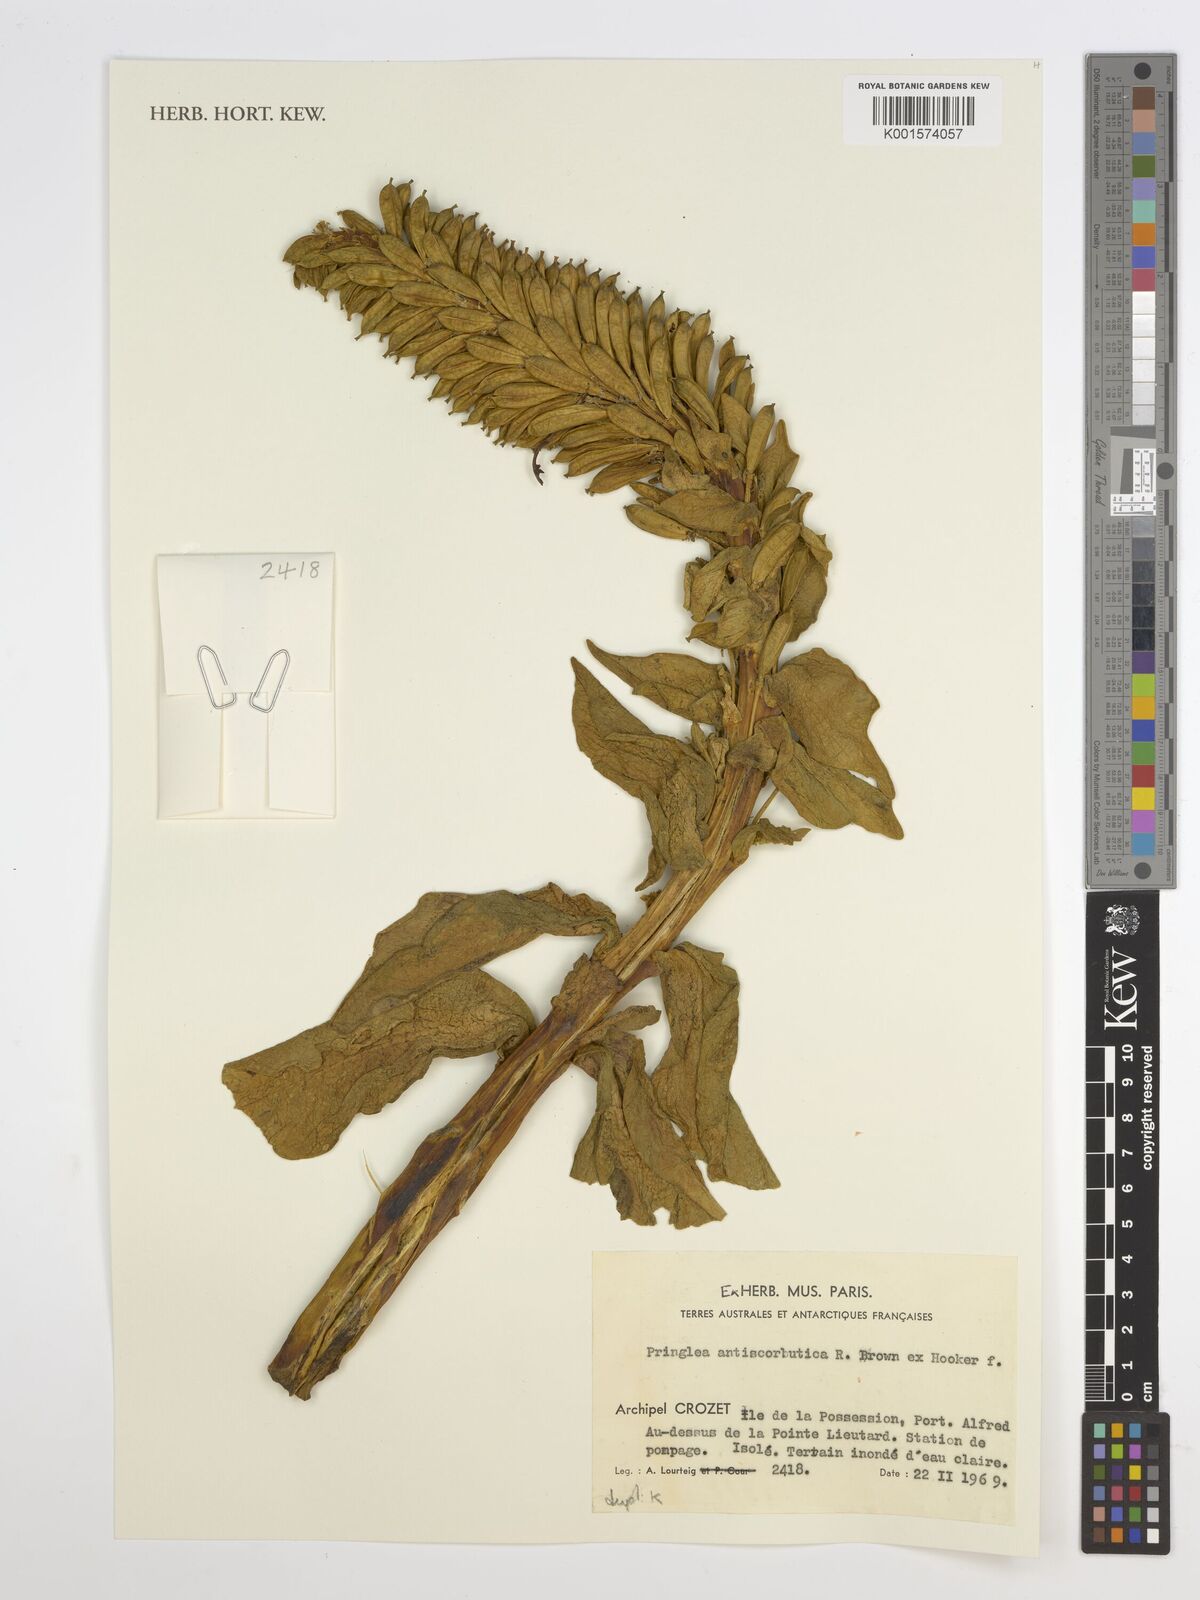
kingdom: Plantae
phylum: Tracheophyta
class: Magnoliopsida
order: Brassicales
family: Brassicaceae
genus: Pringlea
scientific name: Pringlea antiscorbutica
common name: Kerguelen-cabbage
